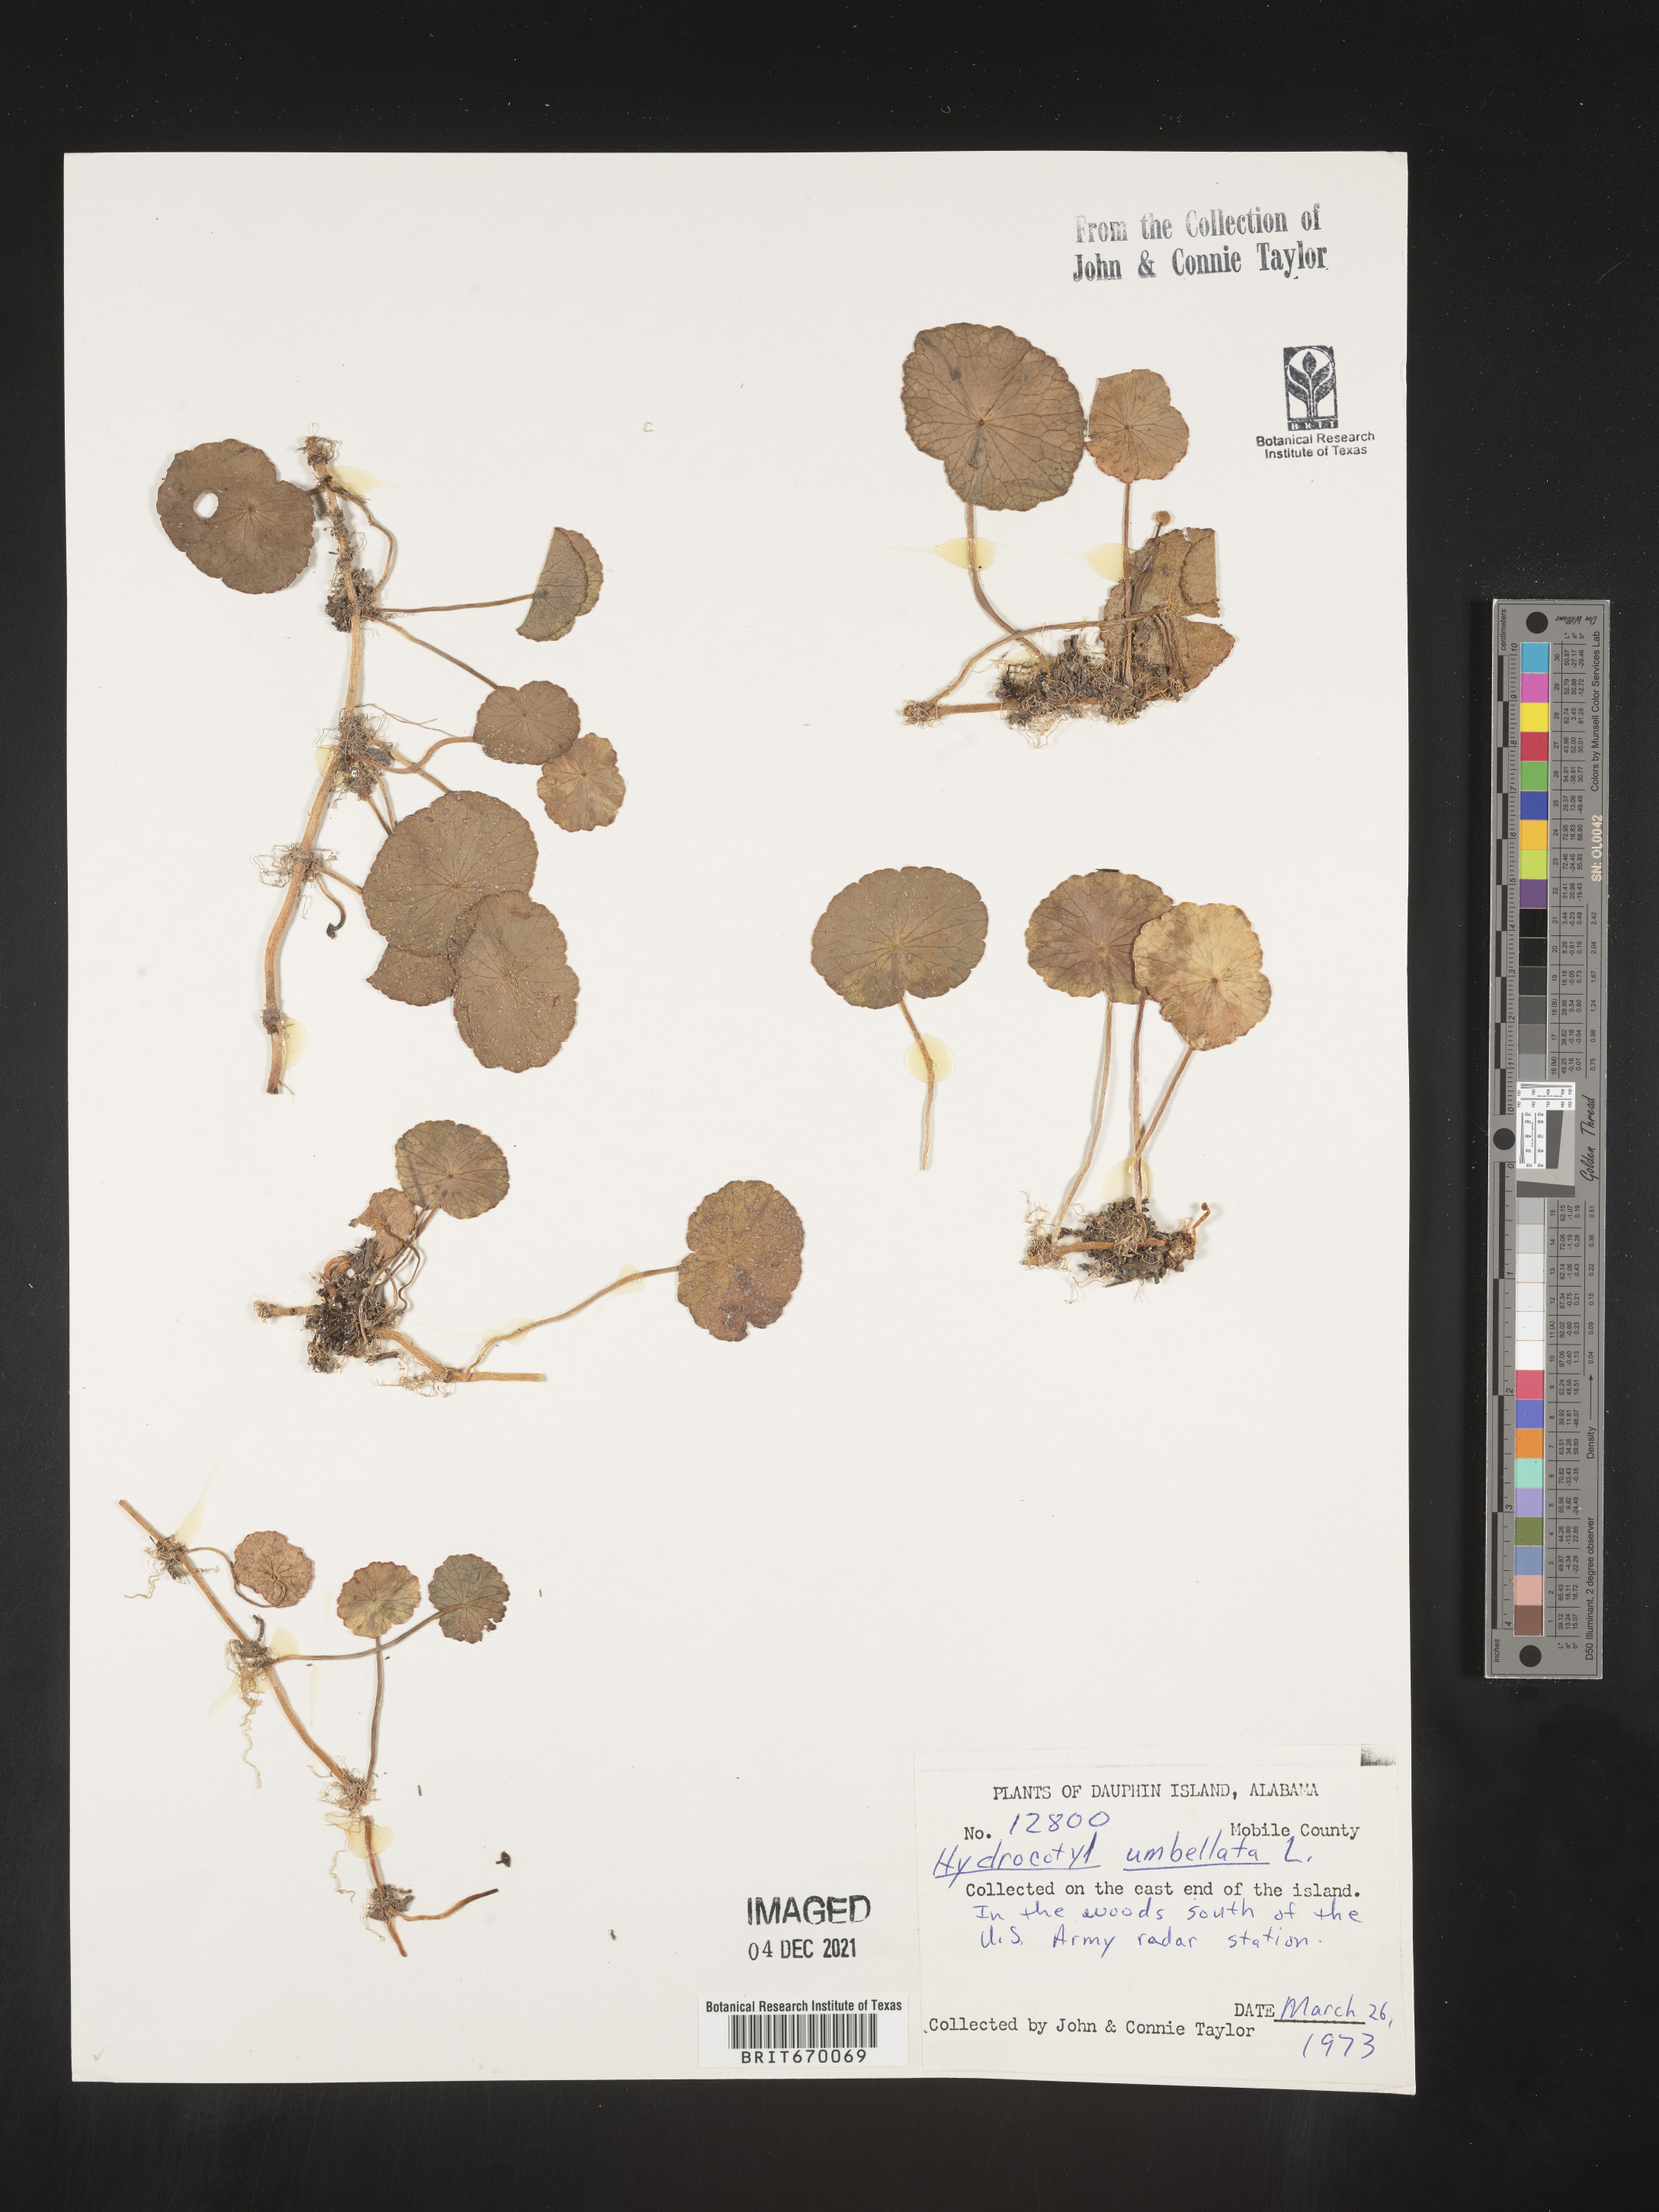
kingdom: Plantae
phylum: Tracheophyta
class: Magnoliopsida
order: Apiales
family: Araliaceae
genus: Hydrocotyle
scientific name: Hydrocotyle umbellata
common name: Water pennywort
